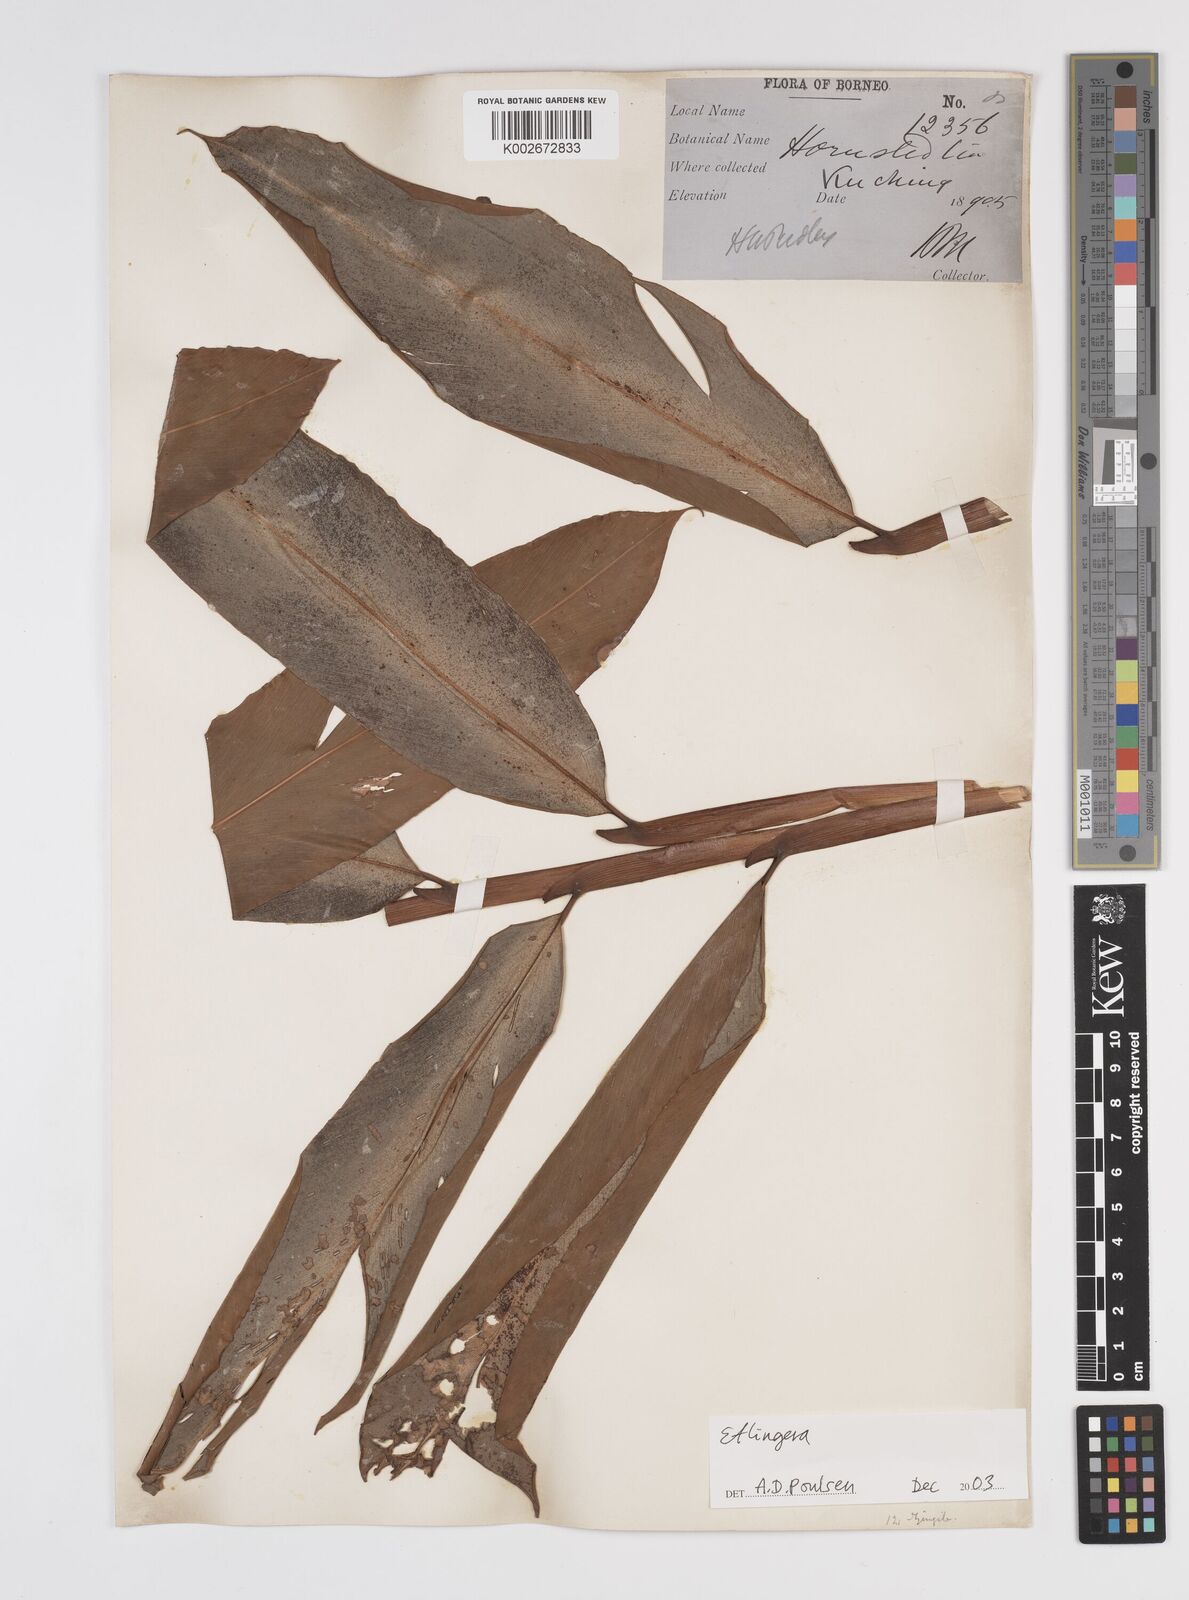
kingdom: Plantae
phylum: Tracheophyta
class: Liliopsida
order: Zingiberales
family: Zingiberaceae
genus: Etlingera
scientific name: Etlingera
